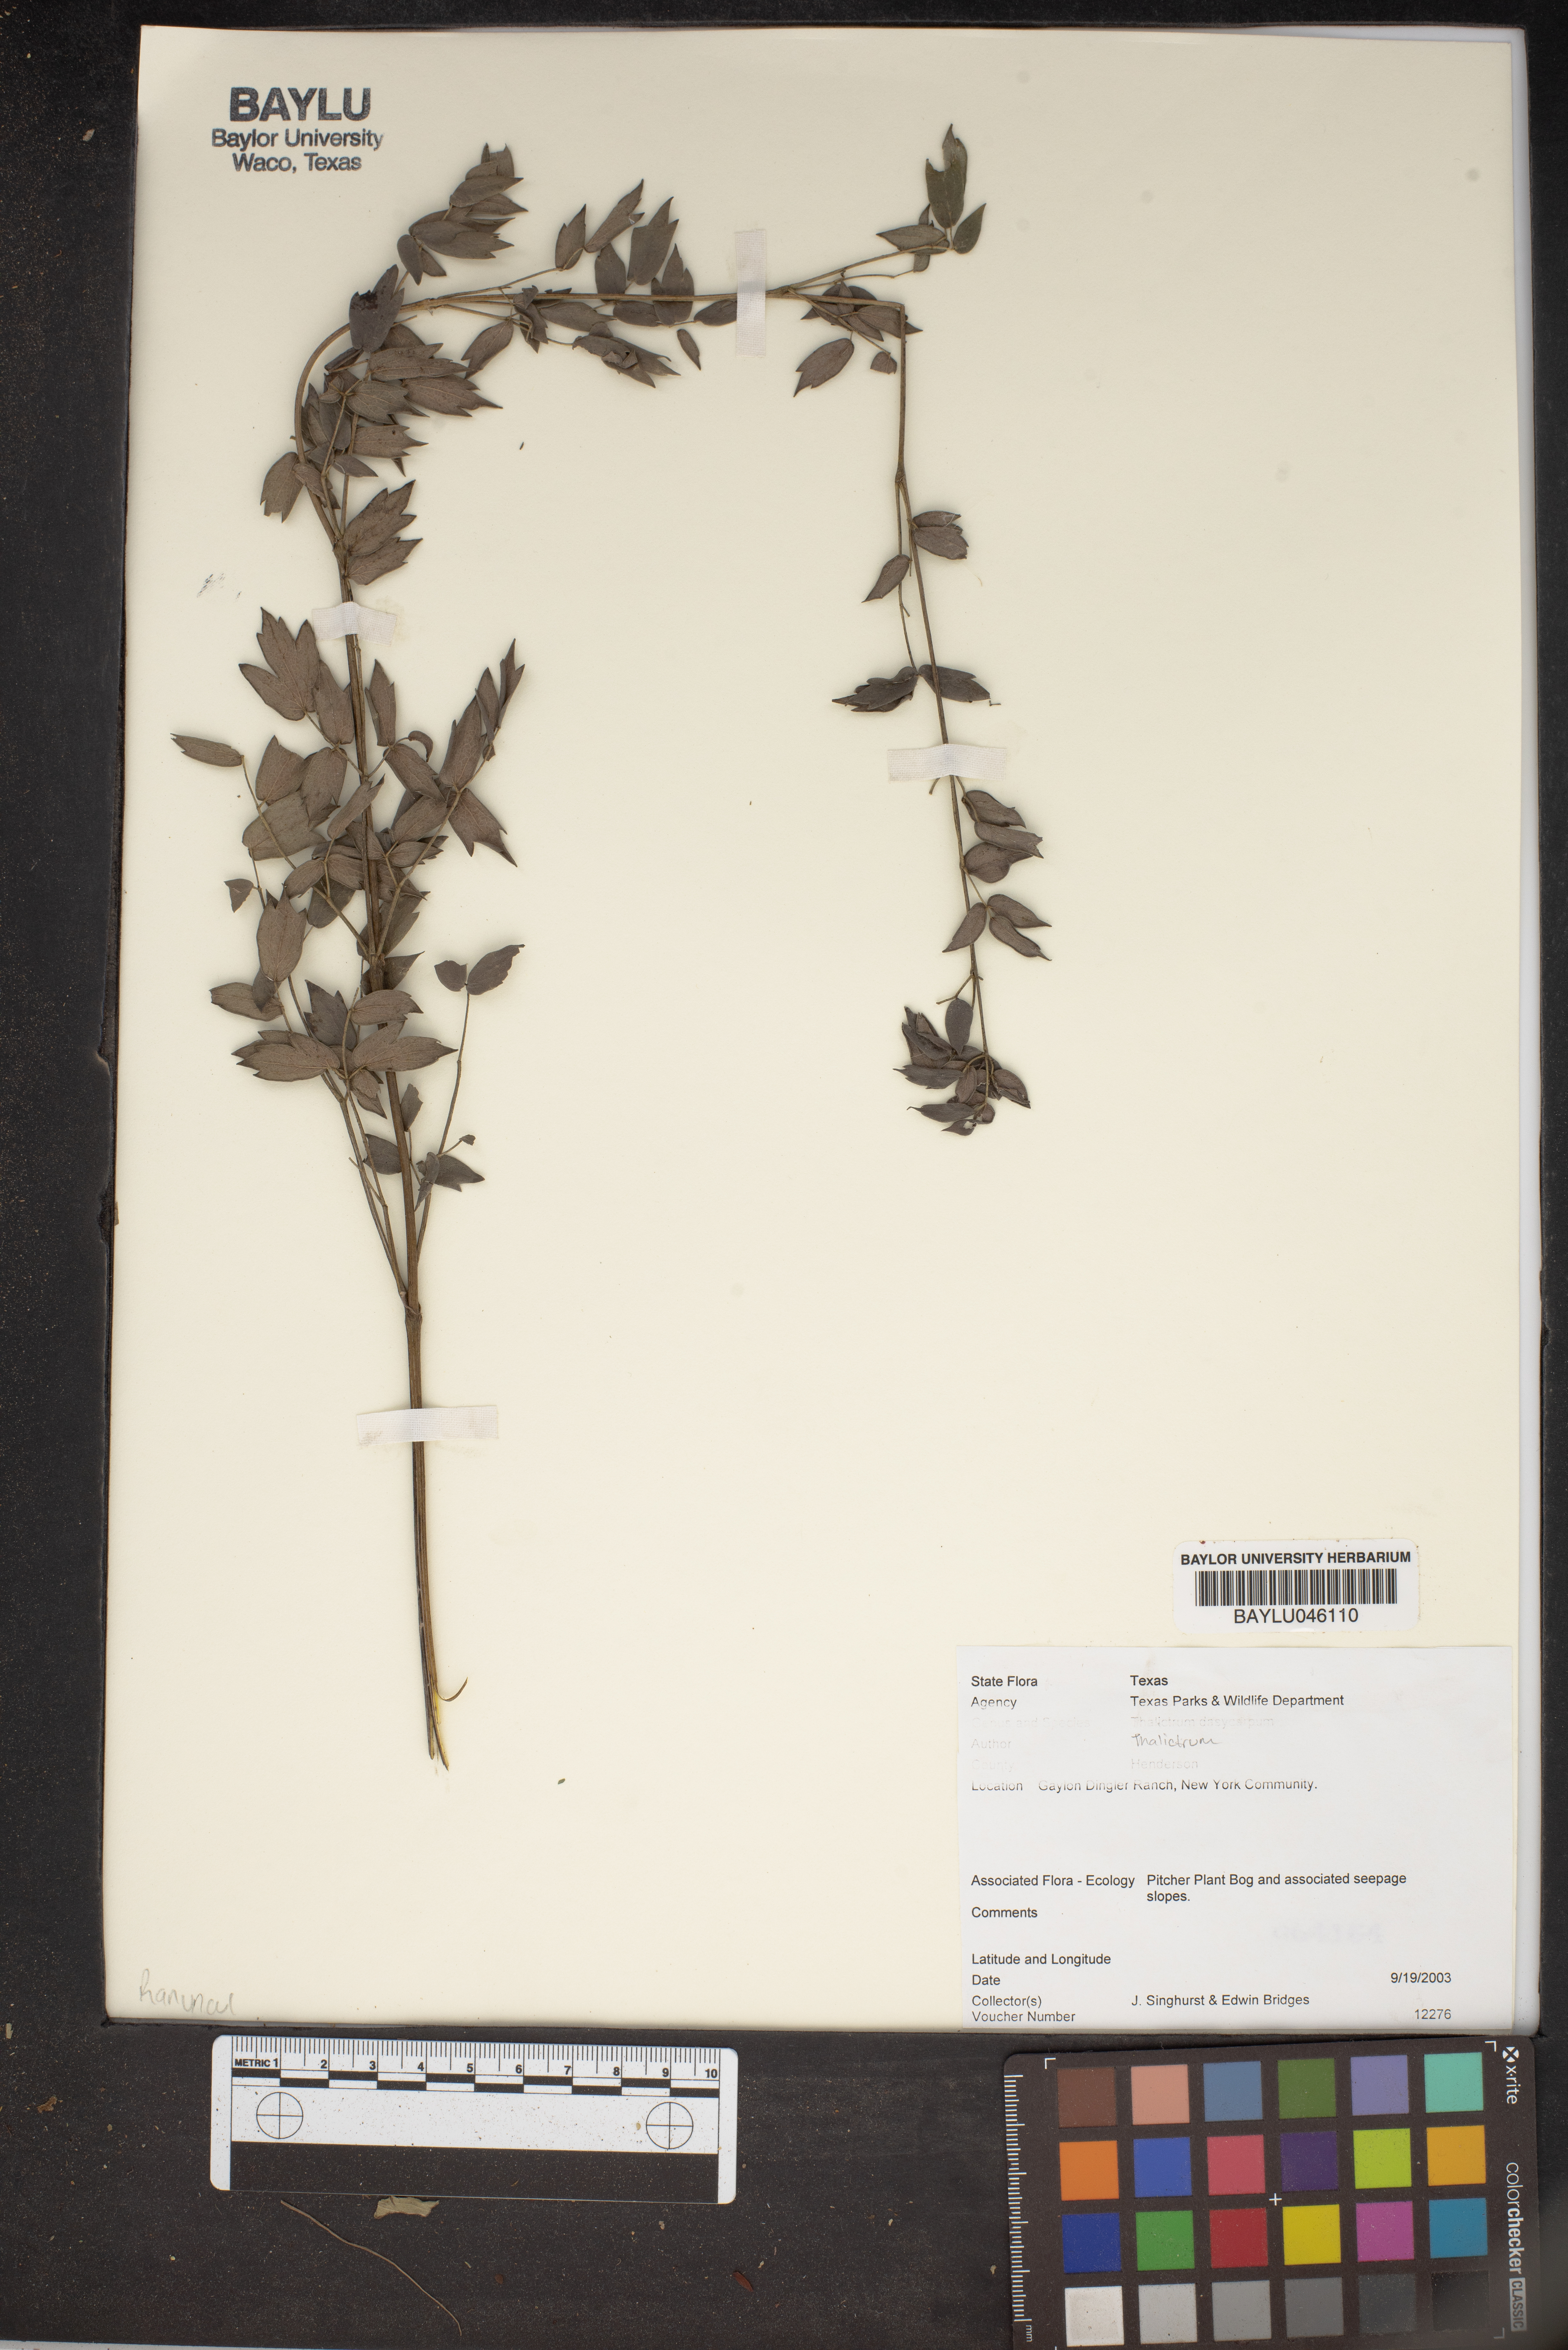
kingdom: Plantae
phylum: Tracheophyta
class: Magnoliopsida
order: Ranunculales
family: Ranunculaceae
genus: Thalictrum
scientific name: Thalictrum dasycarpum
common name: Purple meadow-rue
